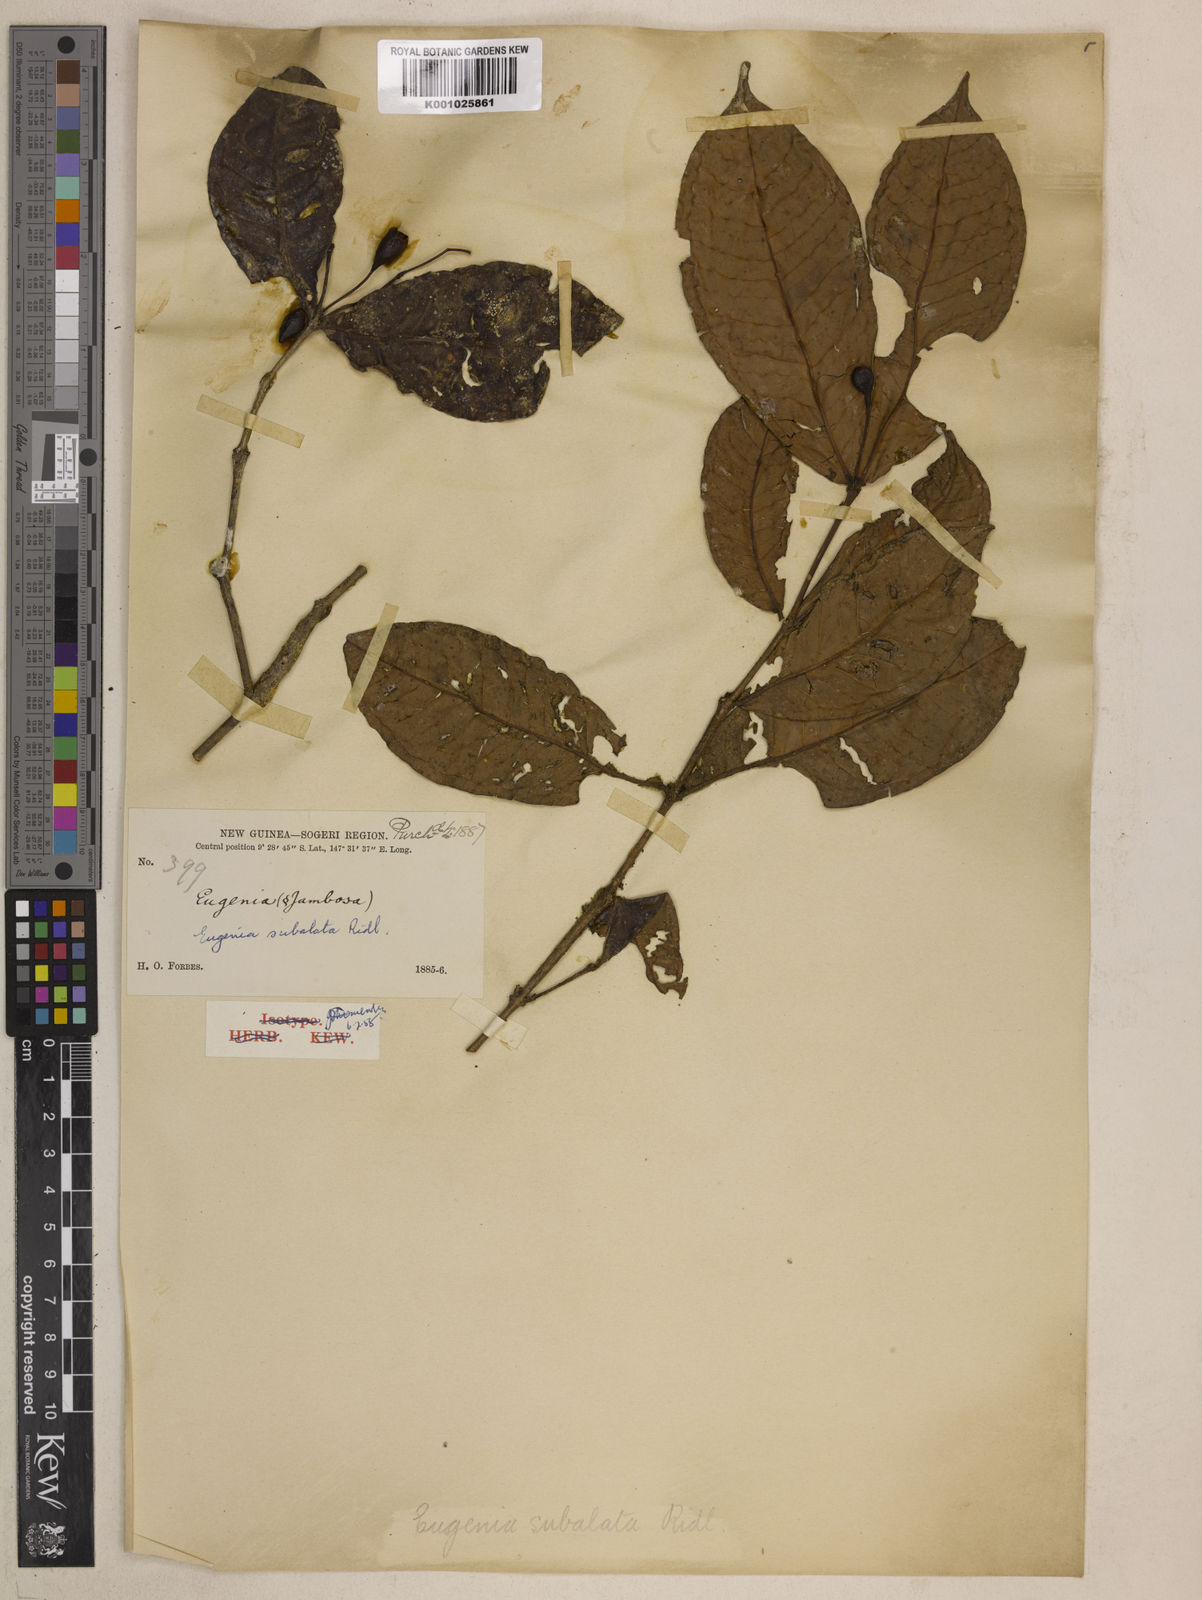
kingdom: Plantae
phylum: Tracheophyta
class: Magnoliopsida
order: Myrtales
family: Myrtaceae
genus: Syzygium
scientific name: Syzygium subalatum
